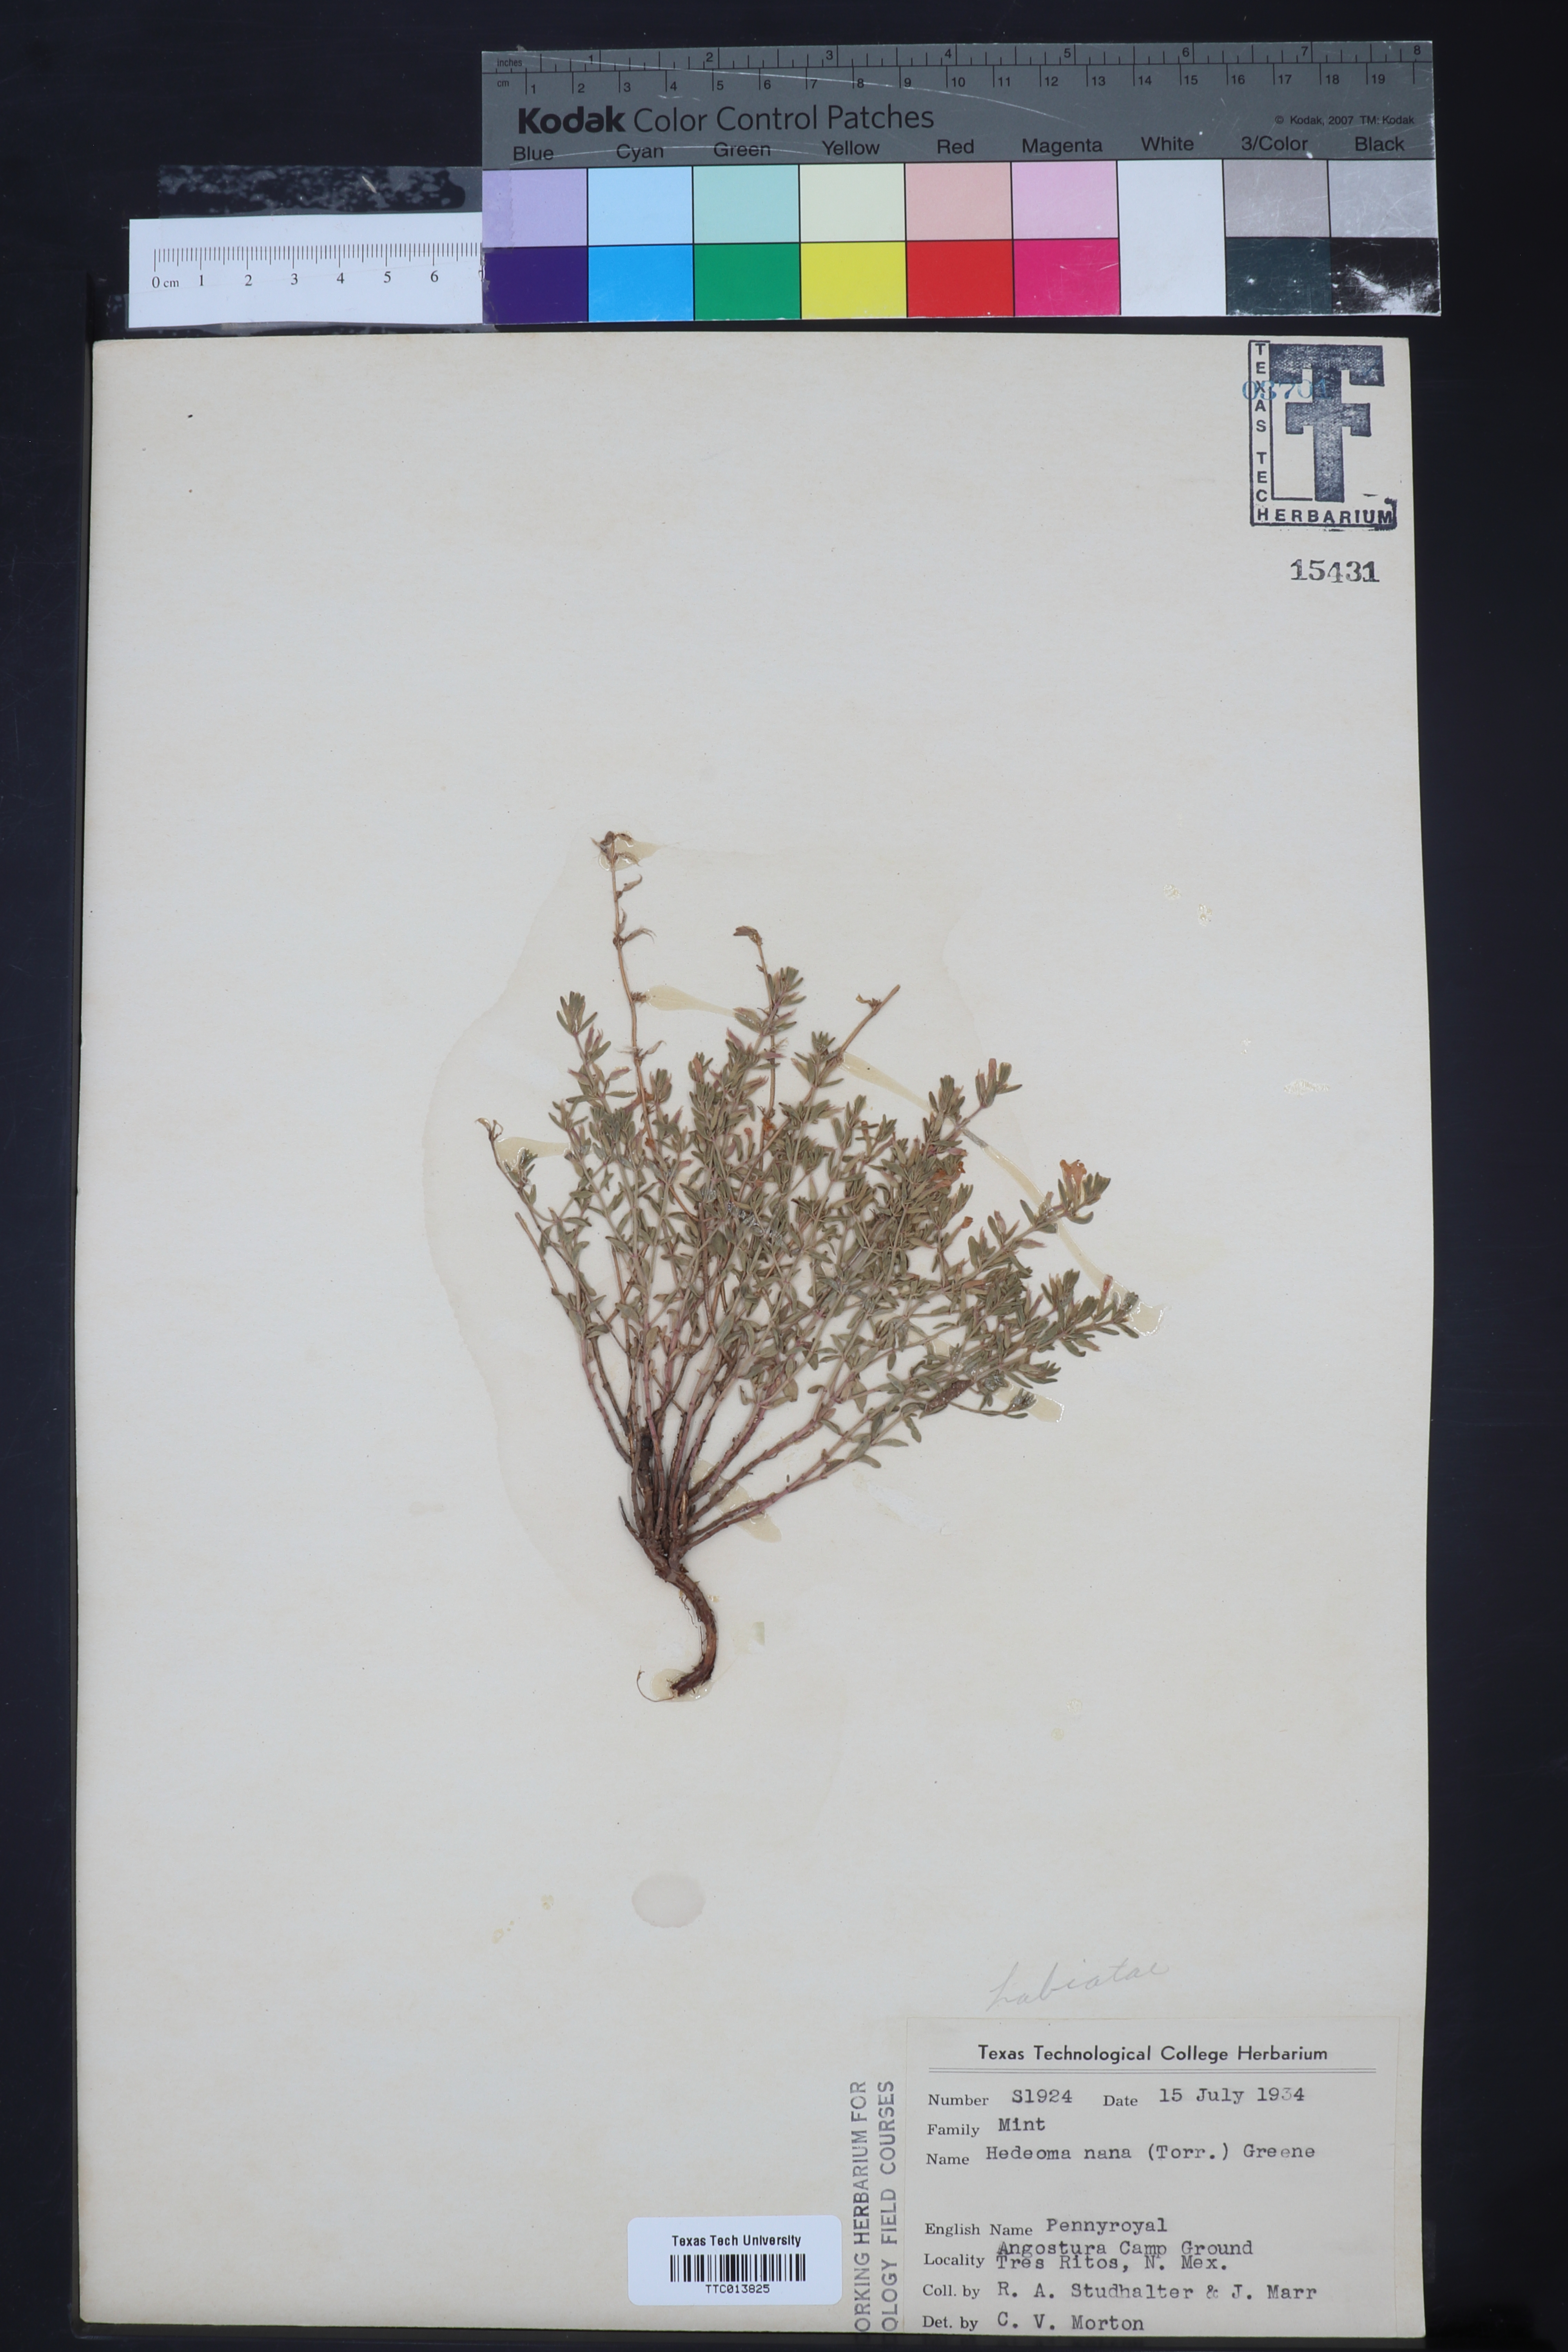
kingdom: Plantae
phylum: Tracheophyta
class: Magnoliopsida
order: Lamiales
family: Lamiaceae
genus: Hedeoma
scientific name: Hedeoma nana
